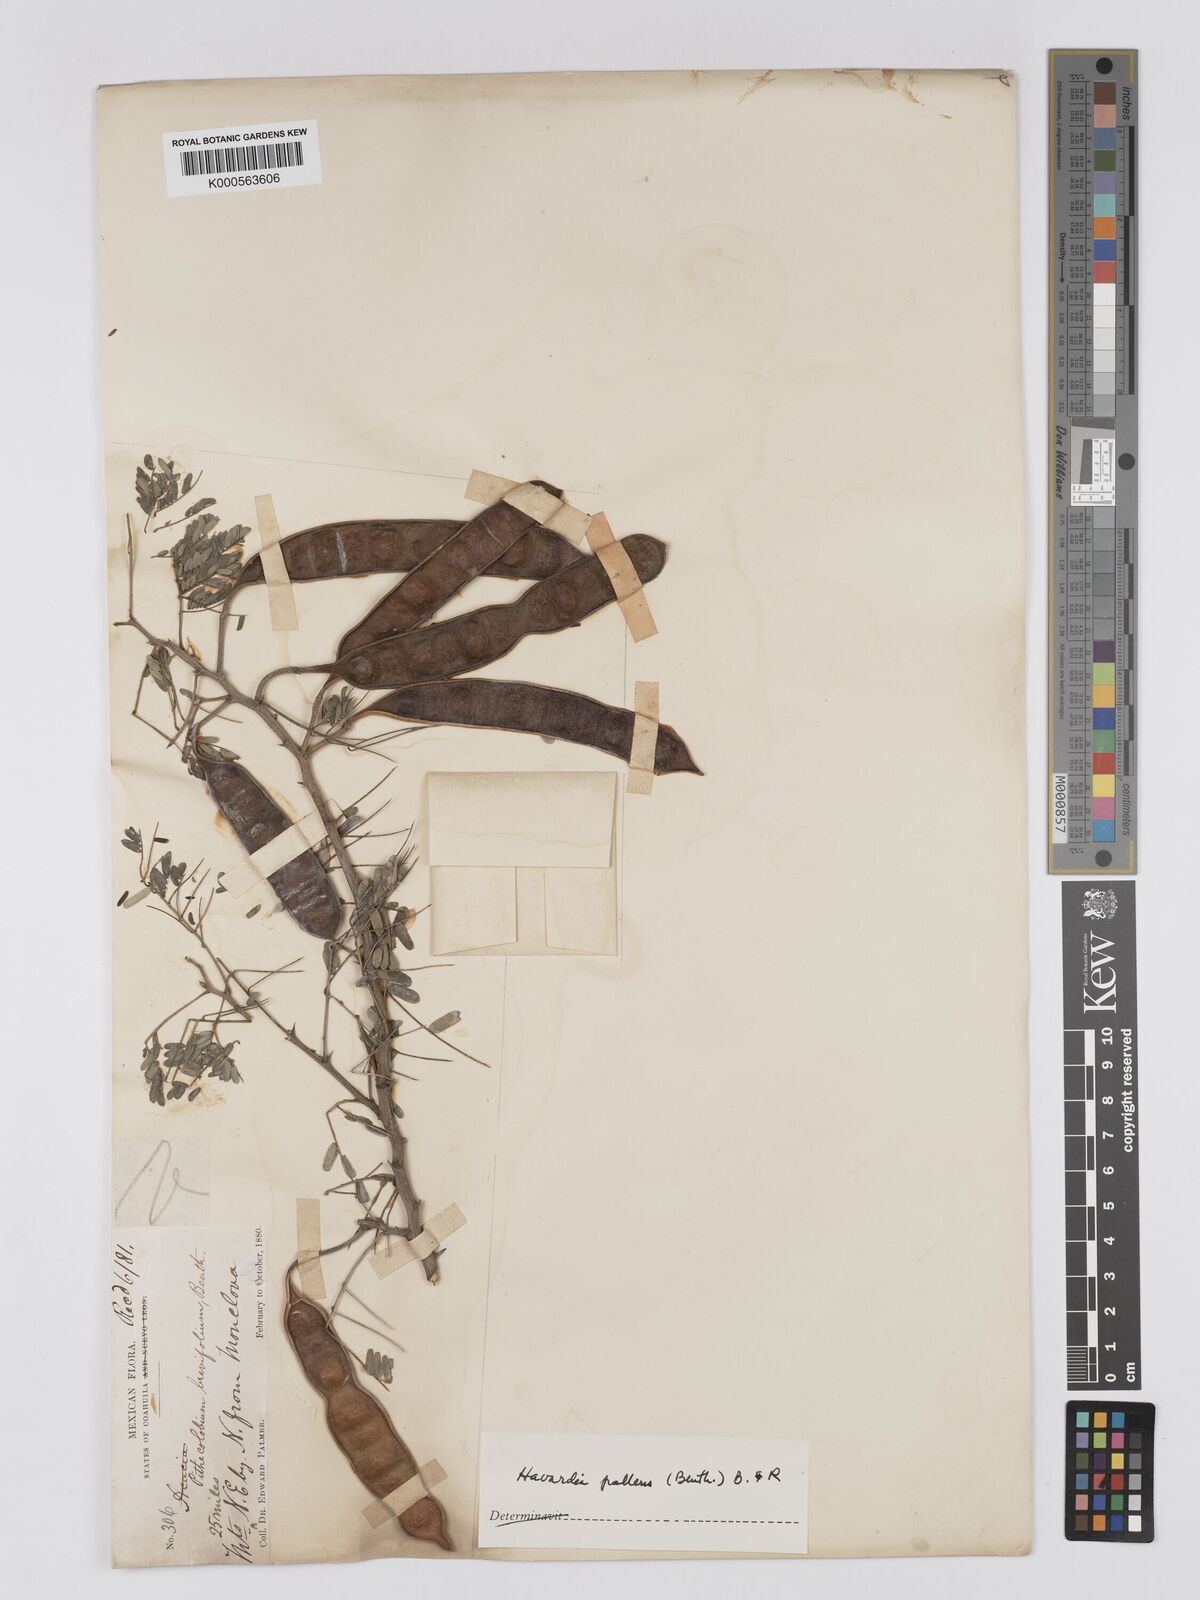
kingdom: Plantae
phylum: Tracheophyta
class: Magnoliopsida
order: Fabales
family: Fabaceae
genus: Havardia
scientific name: Havardia albicans
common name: Huisache
